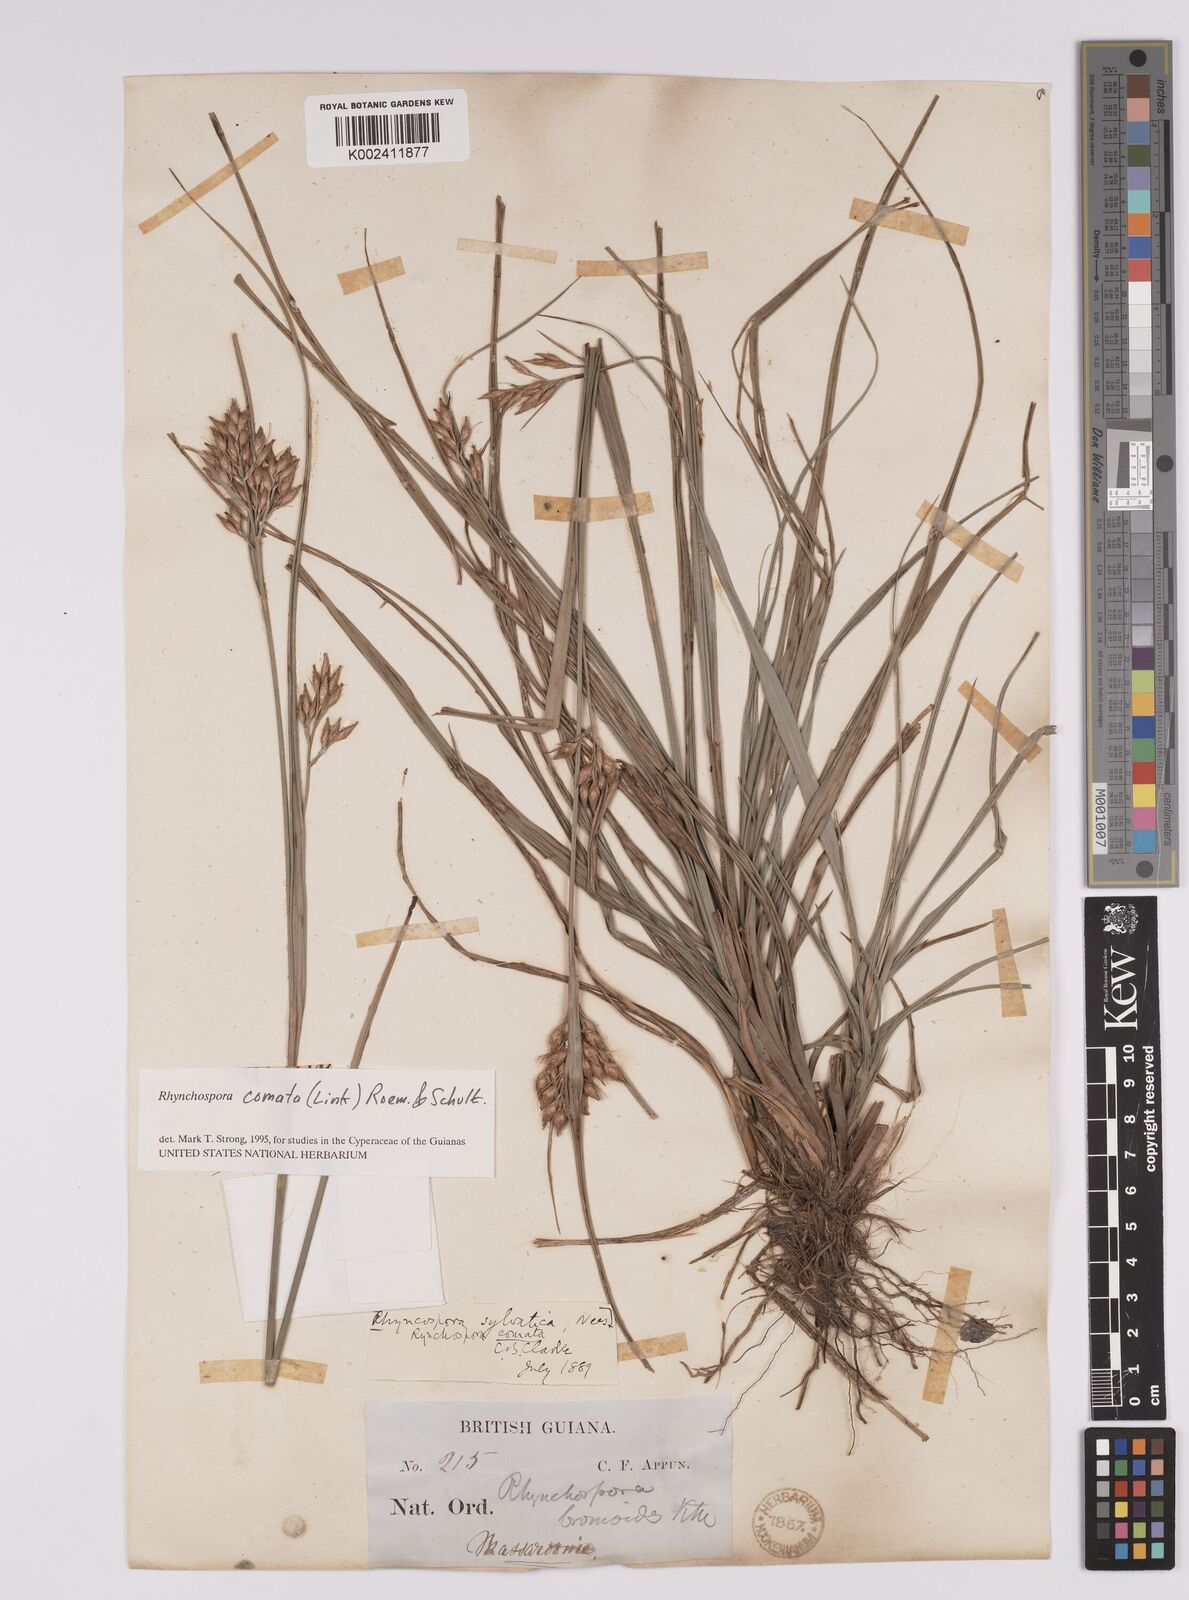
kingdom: Plantae
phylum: Tracheophyta
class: Liliopsida
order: Poales
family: Cyperaceae
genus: Rhynchospora
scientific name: Rhynchospora comata
